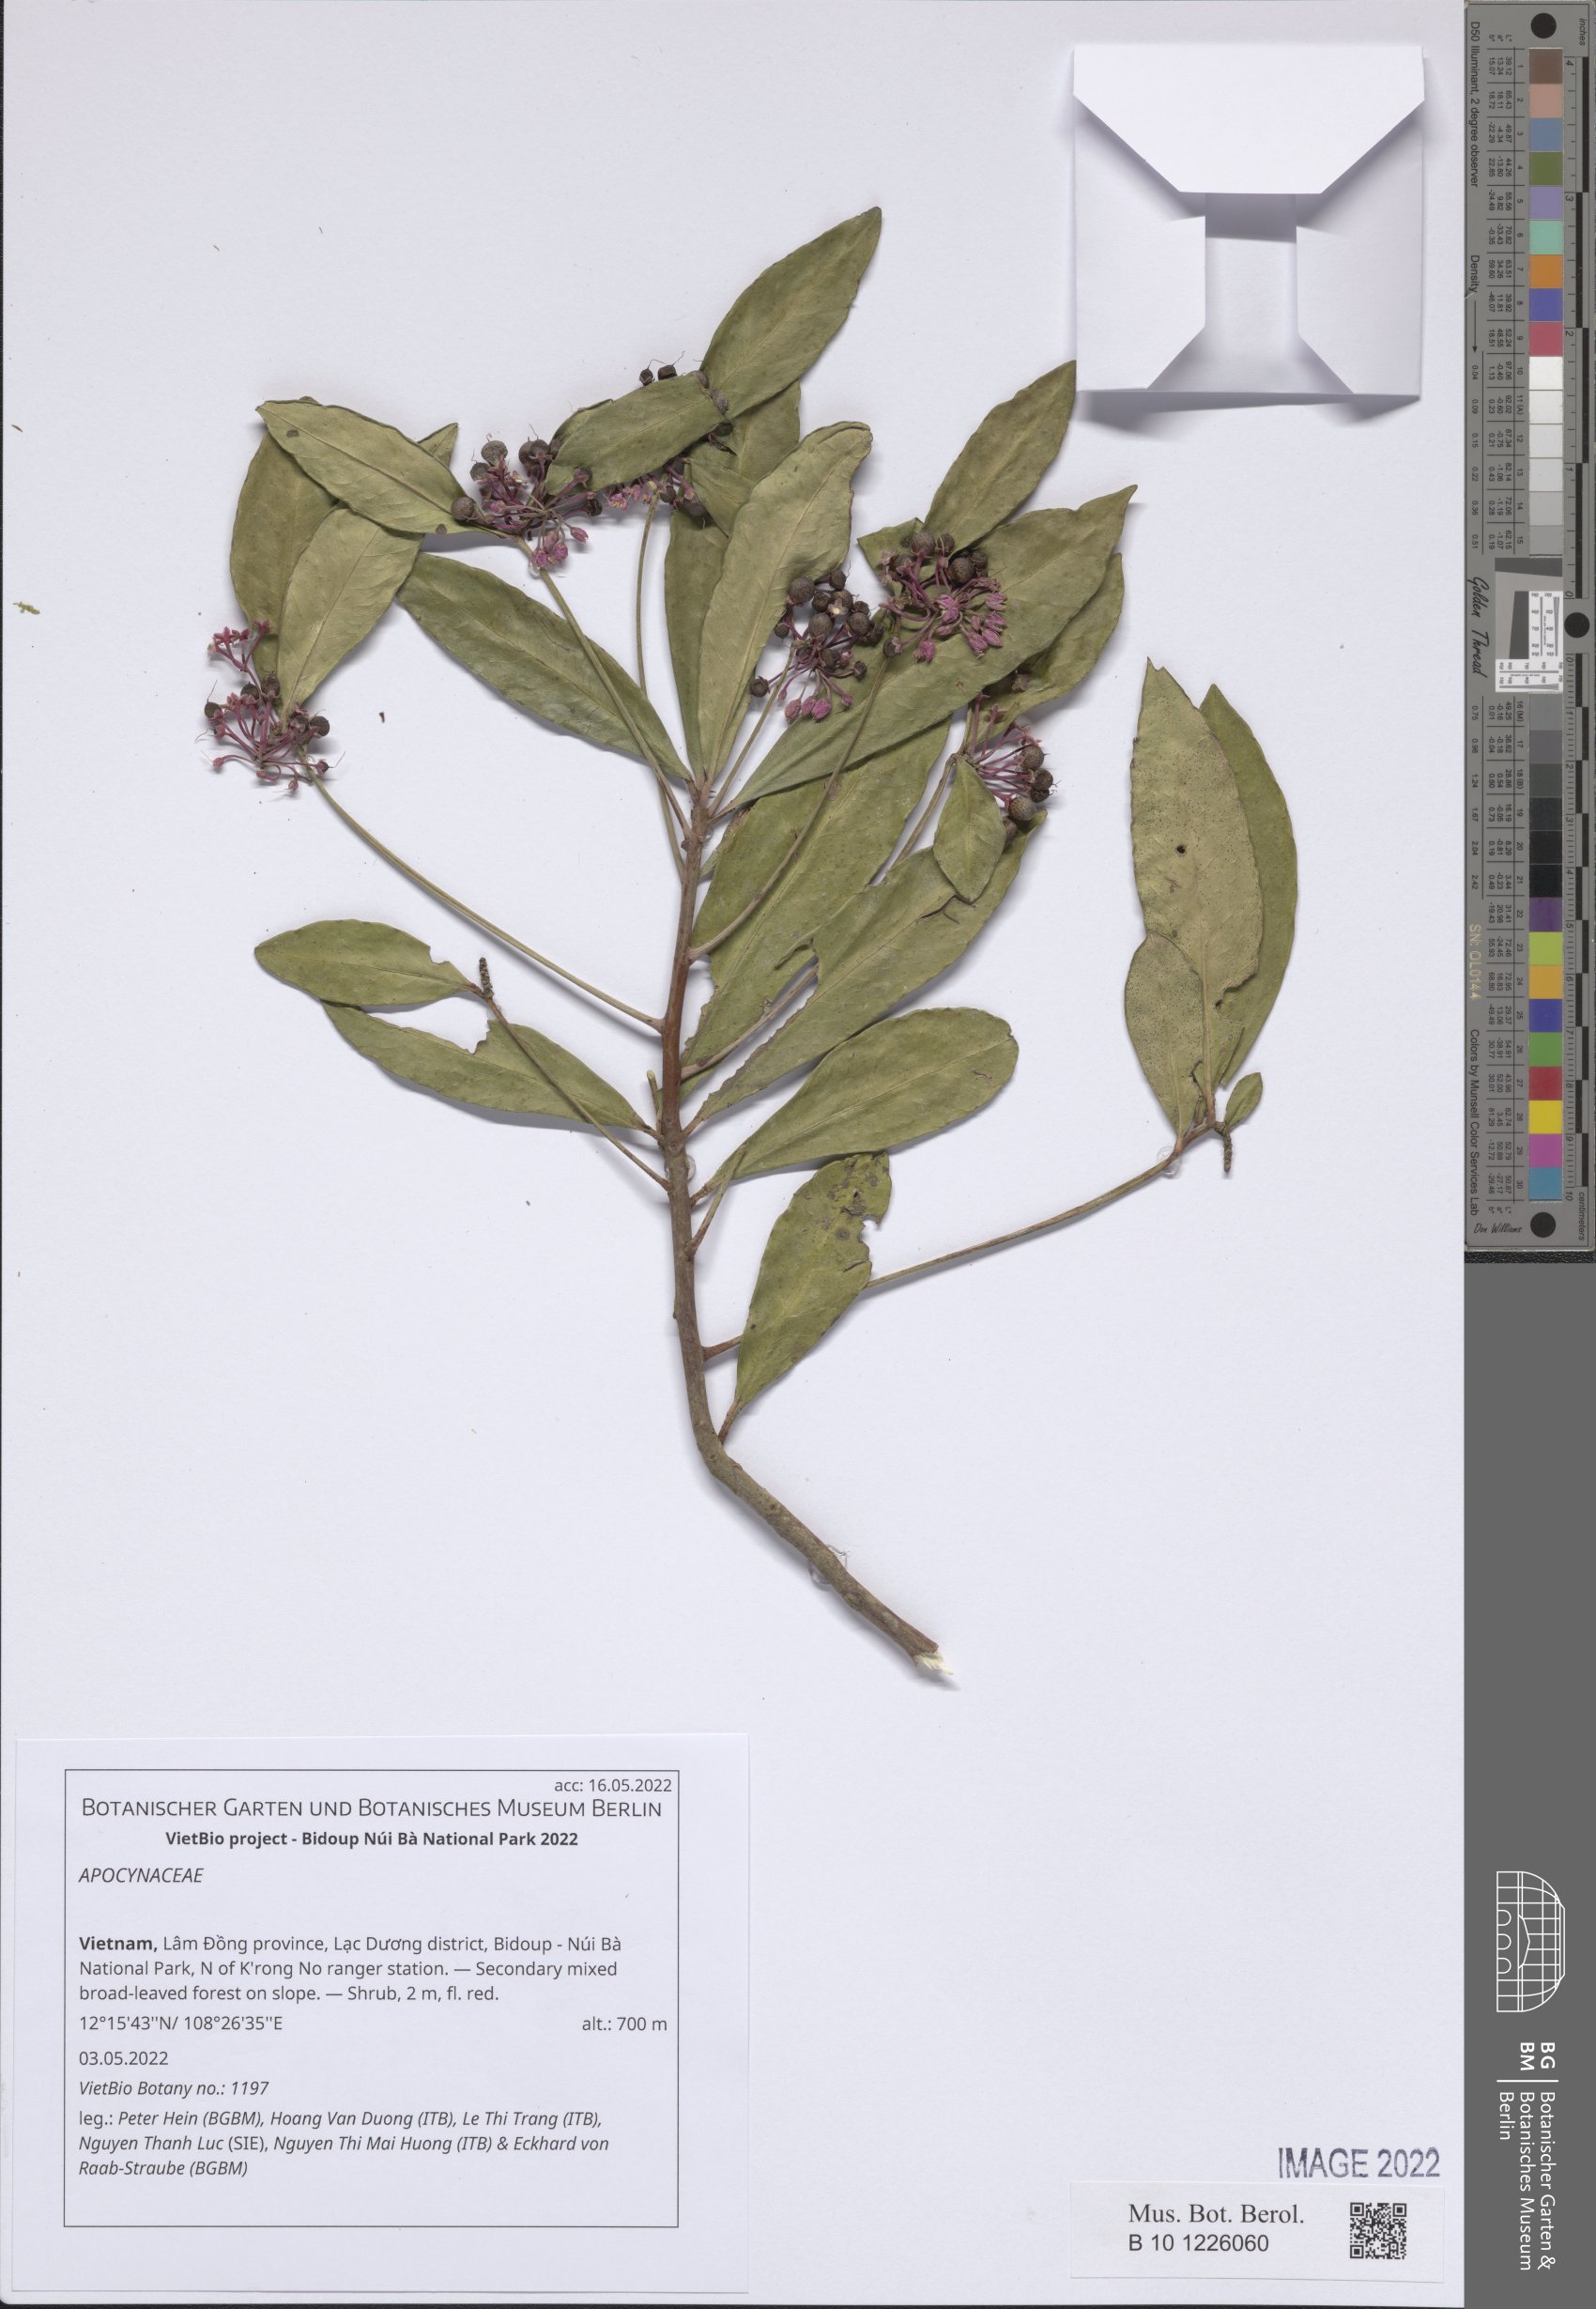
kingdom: Plantae
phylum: Tracheophyta
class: Magnoliopsida
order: Gentianales
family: Apocynaceae
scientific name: Apocynaceae
